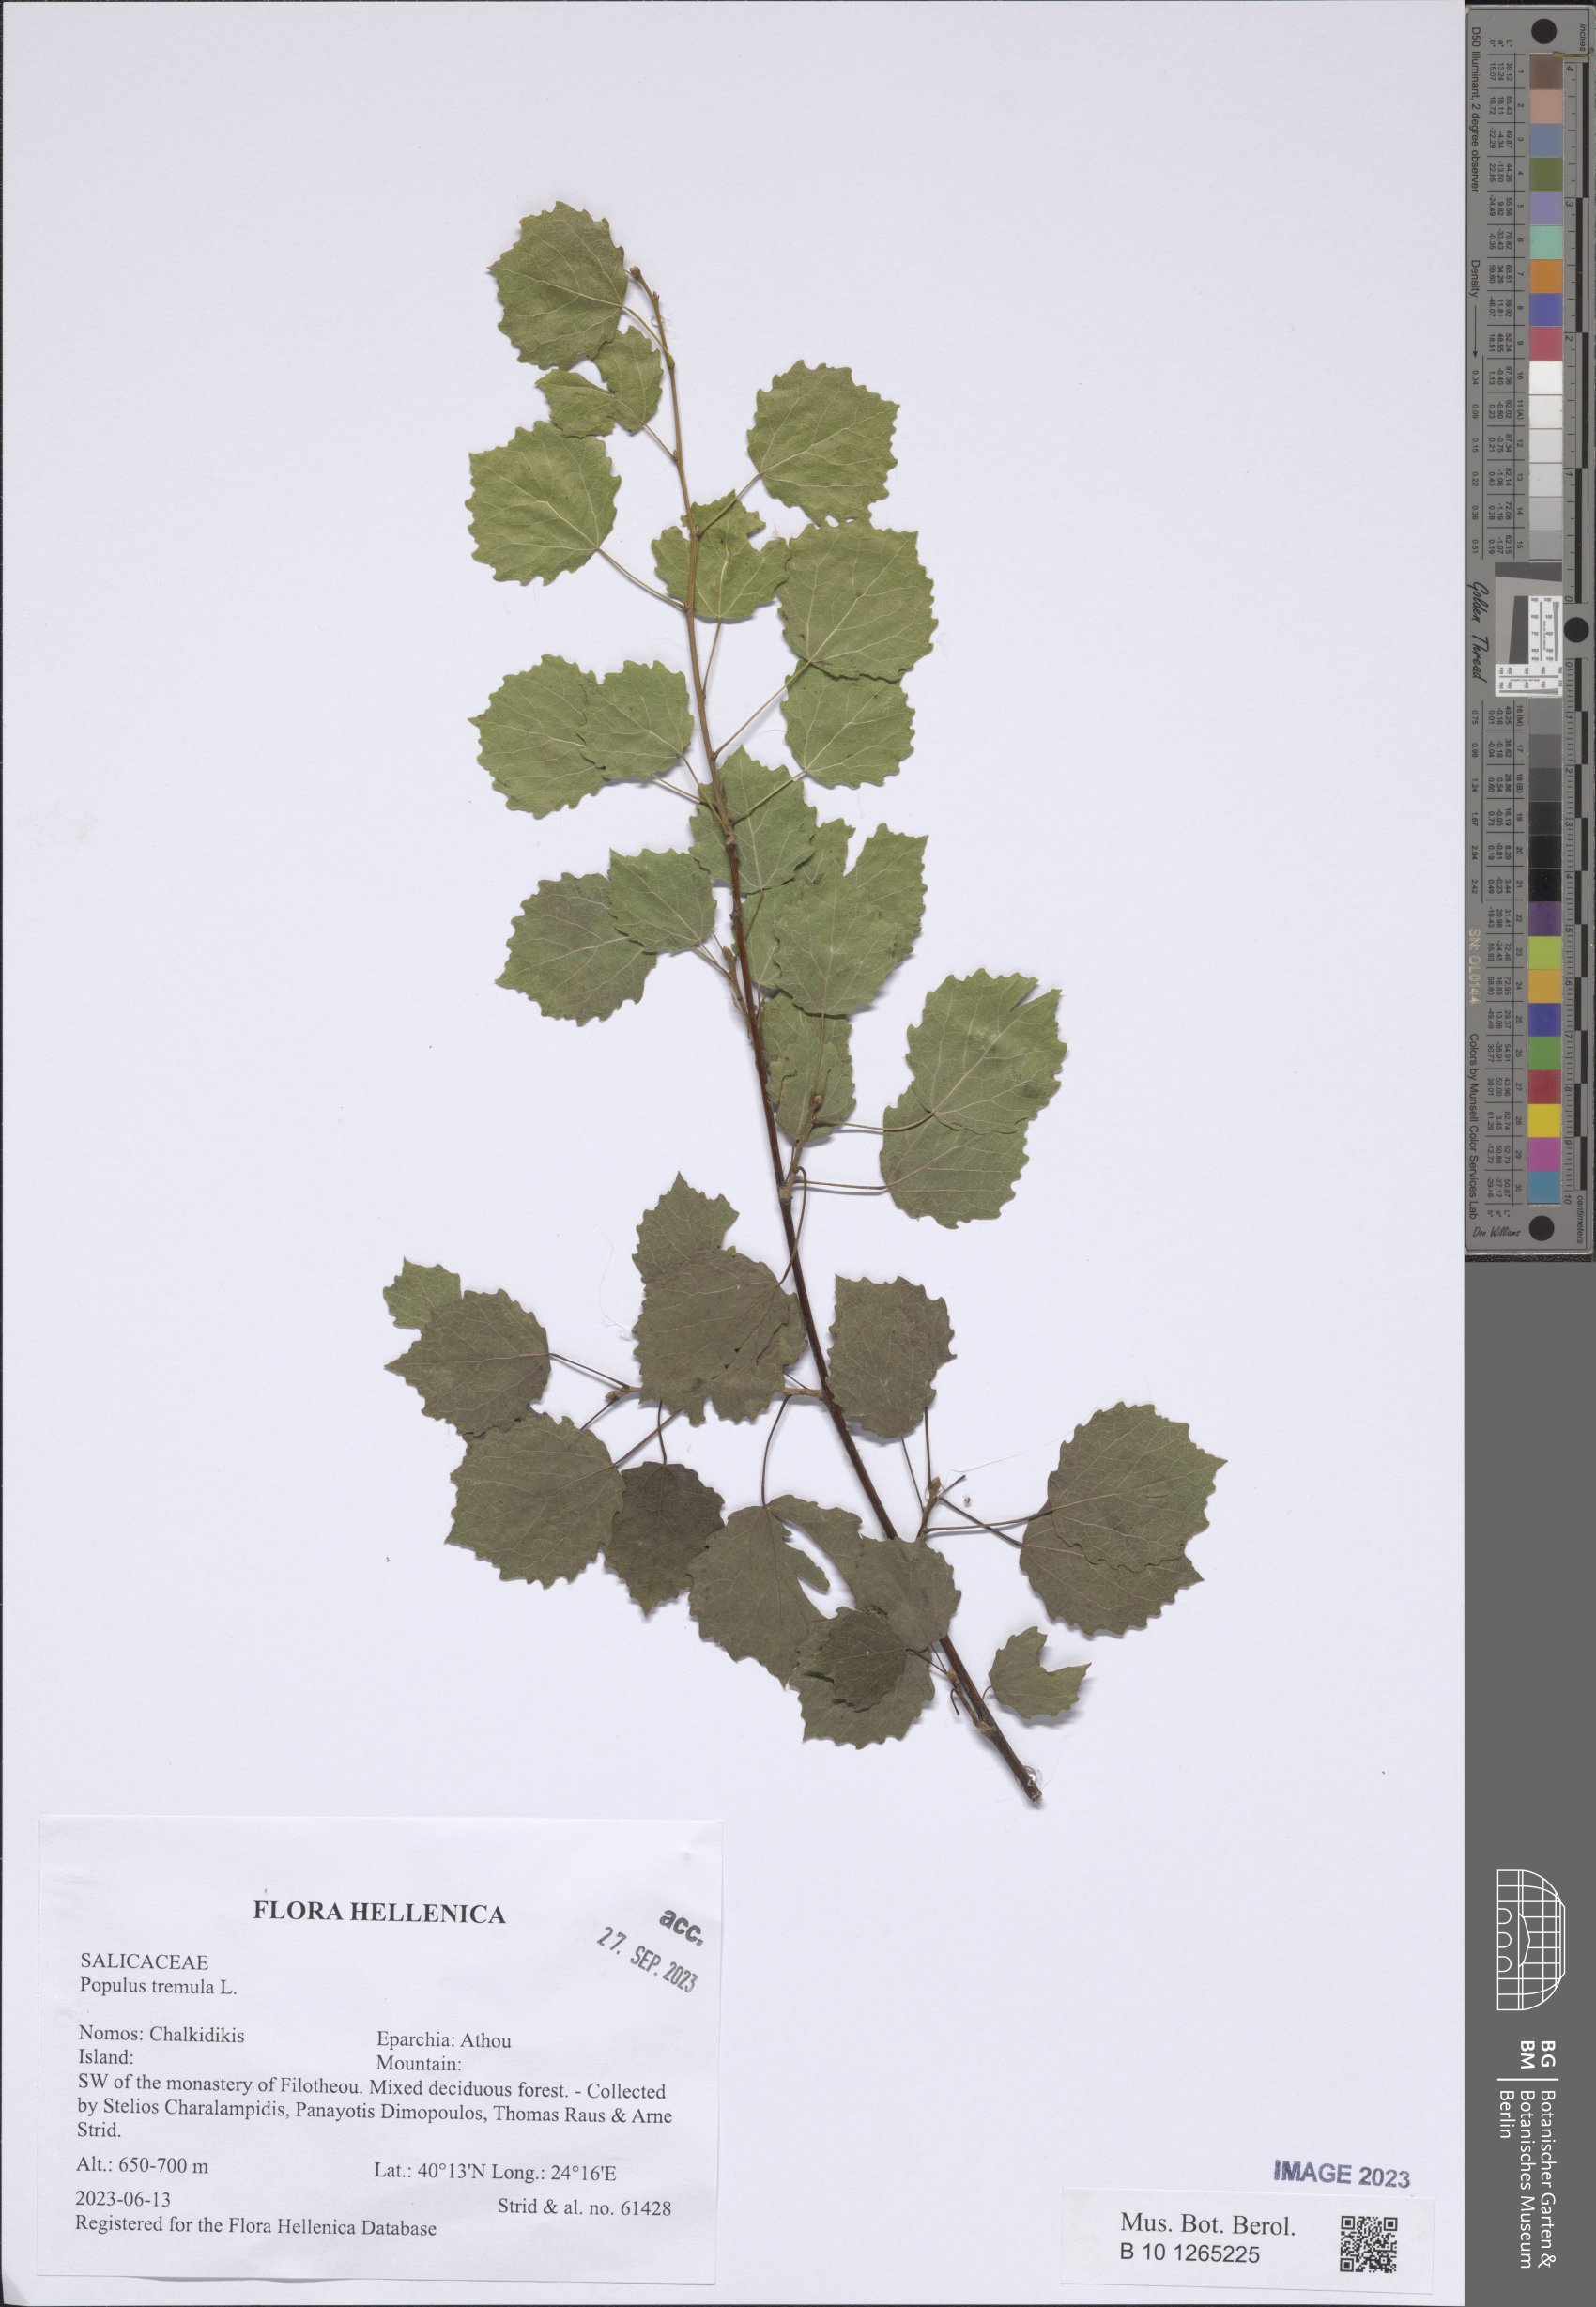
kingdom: Plantae
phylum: Tracheophyta
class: Magnoliopsida
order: Malpighiales
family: Salicaceae
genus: Populus
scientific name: Populus tremula
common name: European aspen
